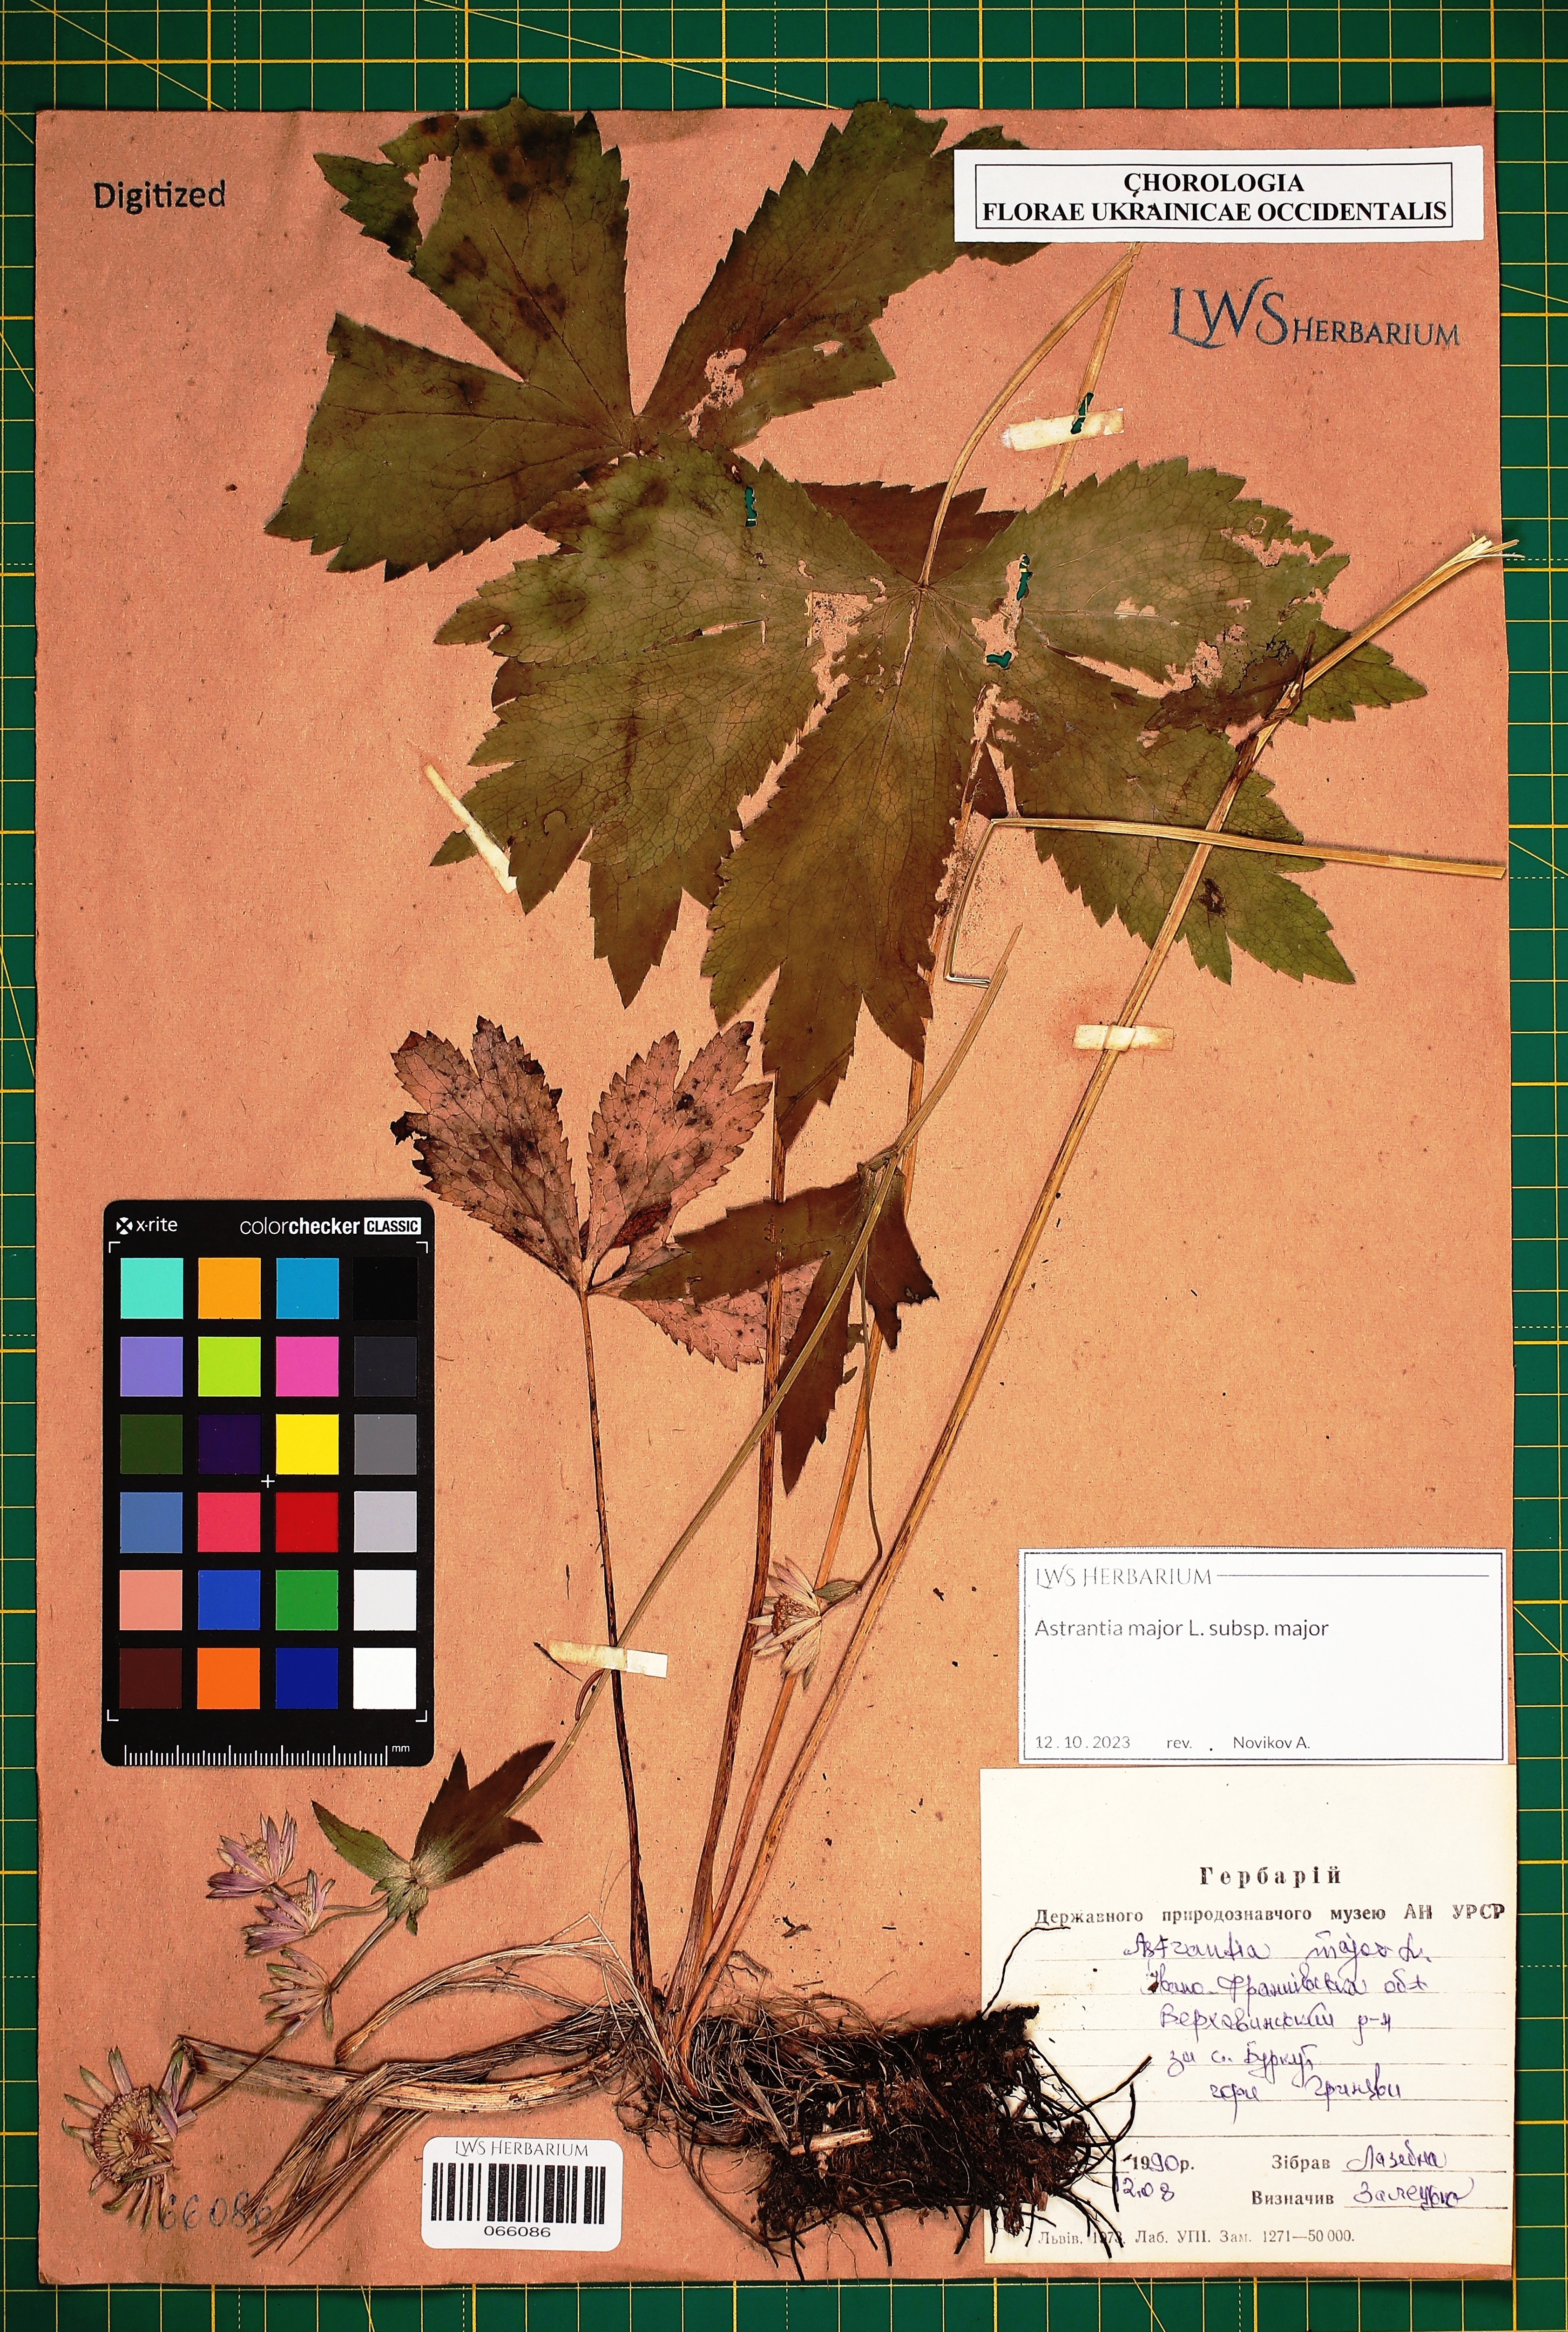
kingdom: Plantae
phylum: Tracheophyta
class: Magnoliopsida
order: Apiales
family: Apiaceae
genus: Astrantia
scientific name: Astrantia major
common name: Greater masterwort
